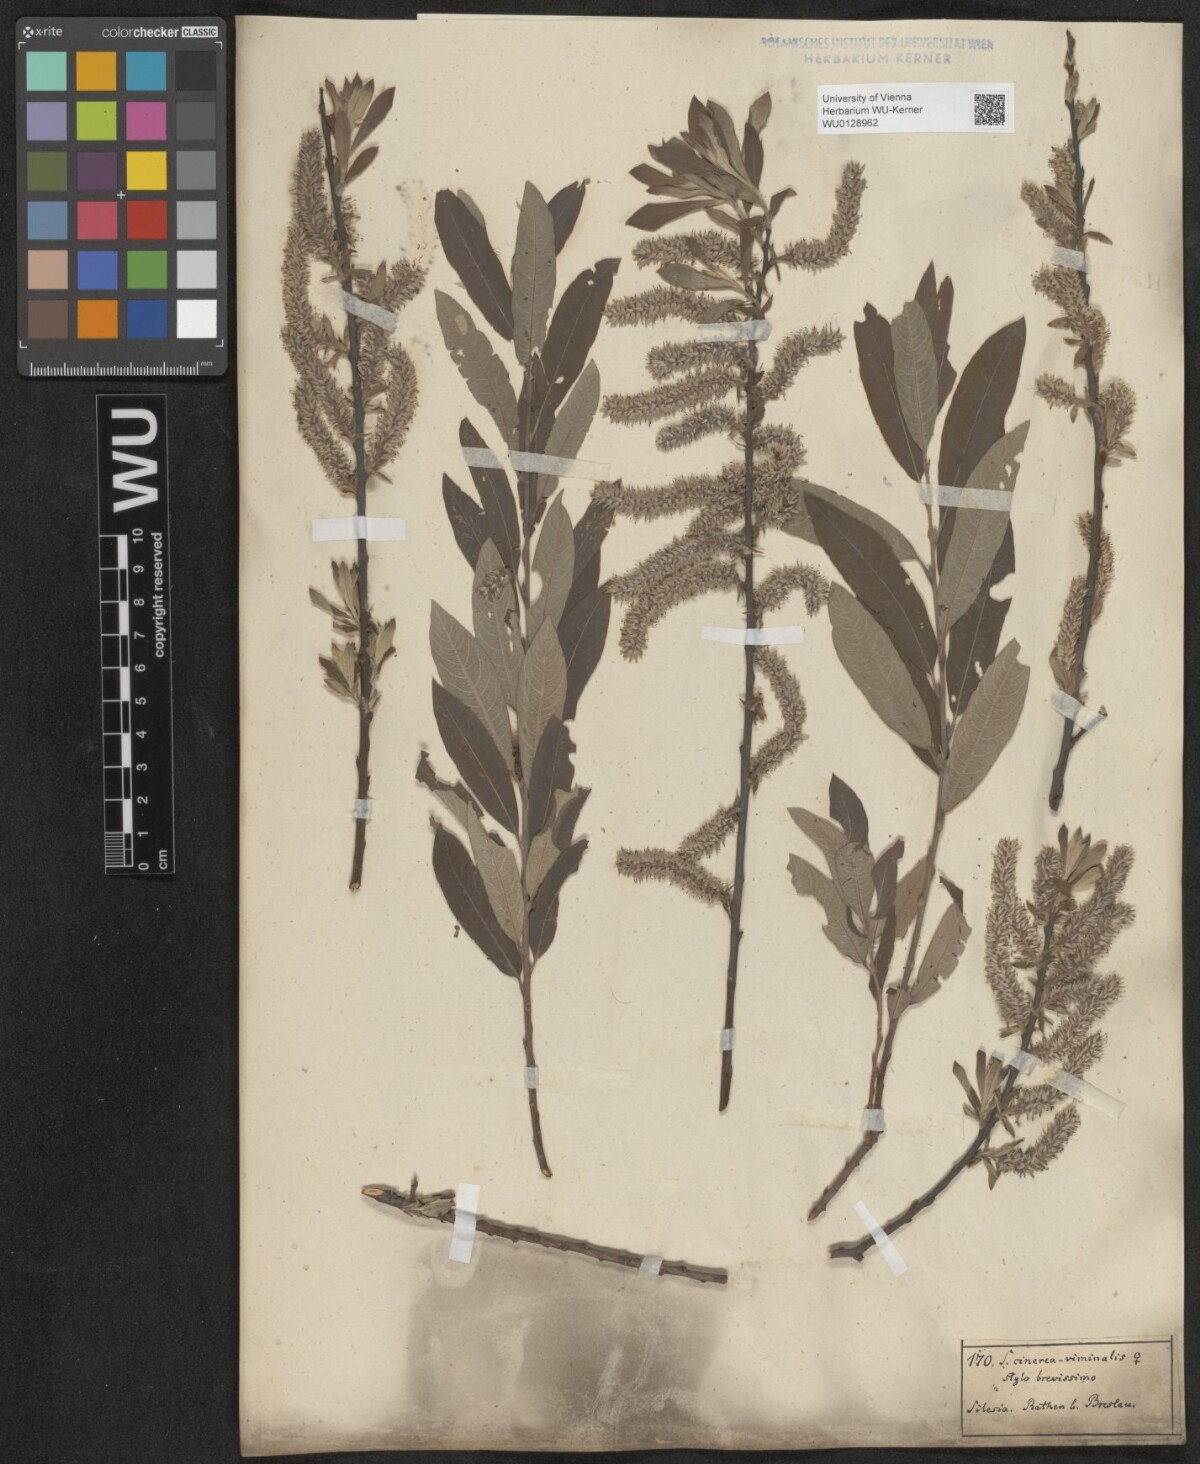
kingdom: Plantae
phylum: Tracheophyta
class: Magnoliopsida
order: Malpighiales
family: Salicaceae
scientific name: Salicaceae
